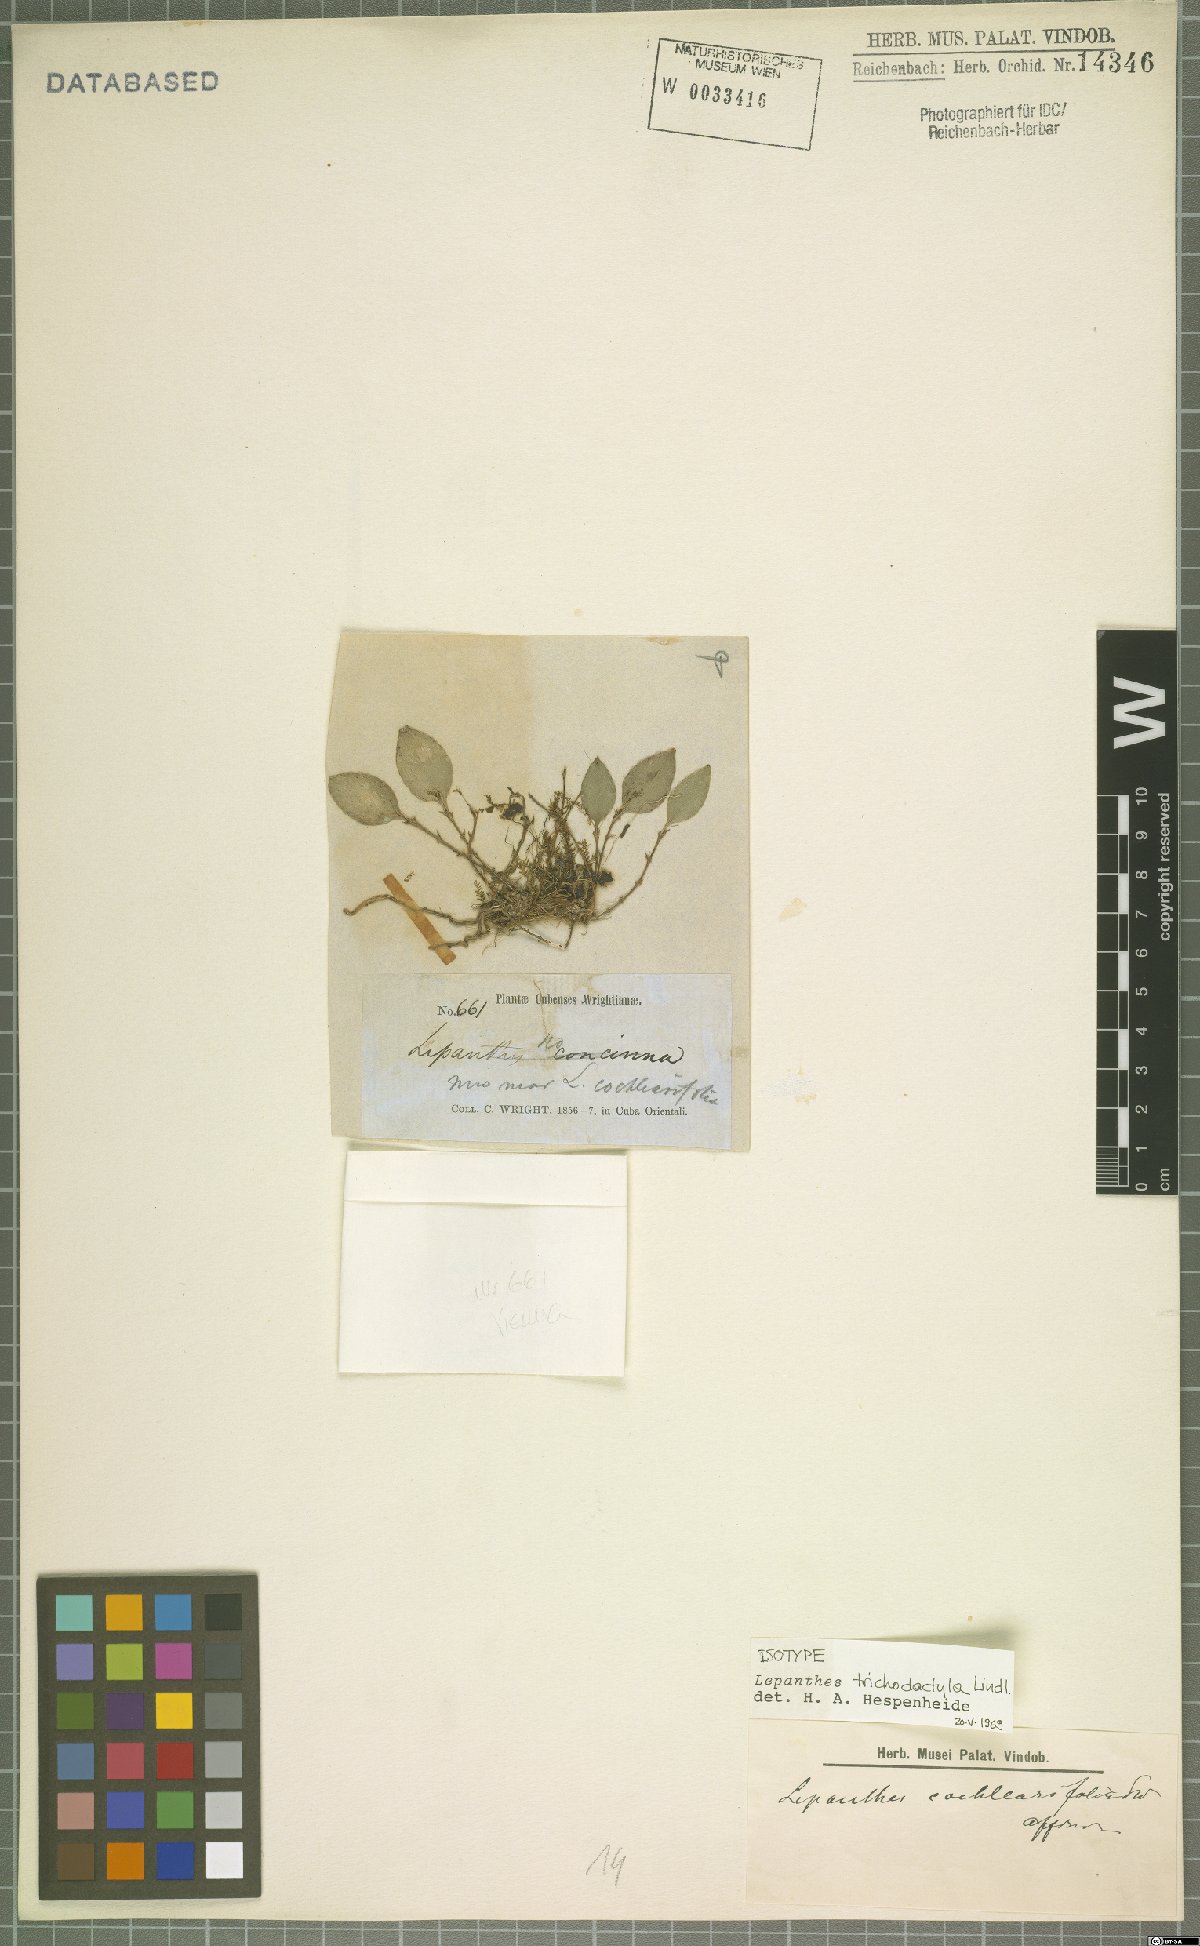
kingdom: Plantae
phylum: Tracheophyta
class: Liliopsida
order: Asparagales
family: Orchidaceae
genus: Lepanthes
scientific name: Lepanthes trichodactyla
